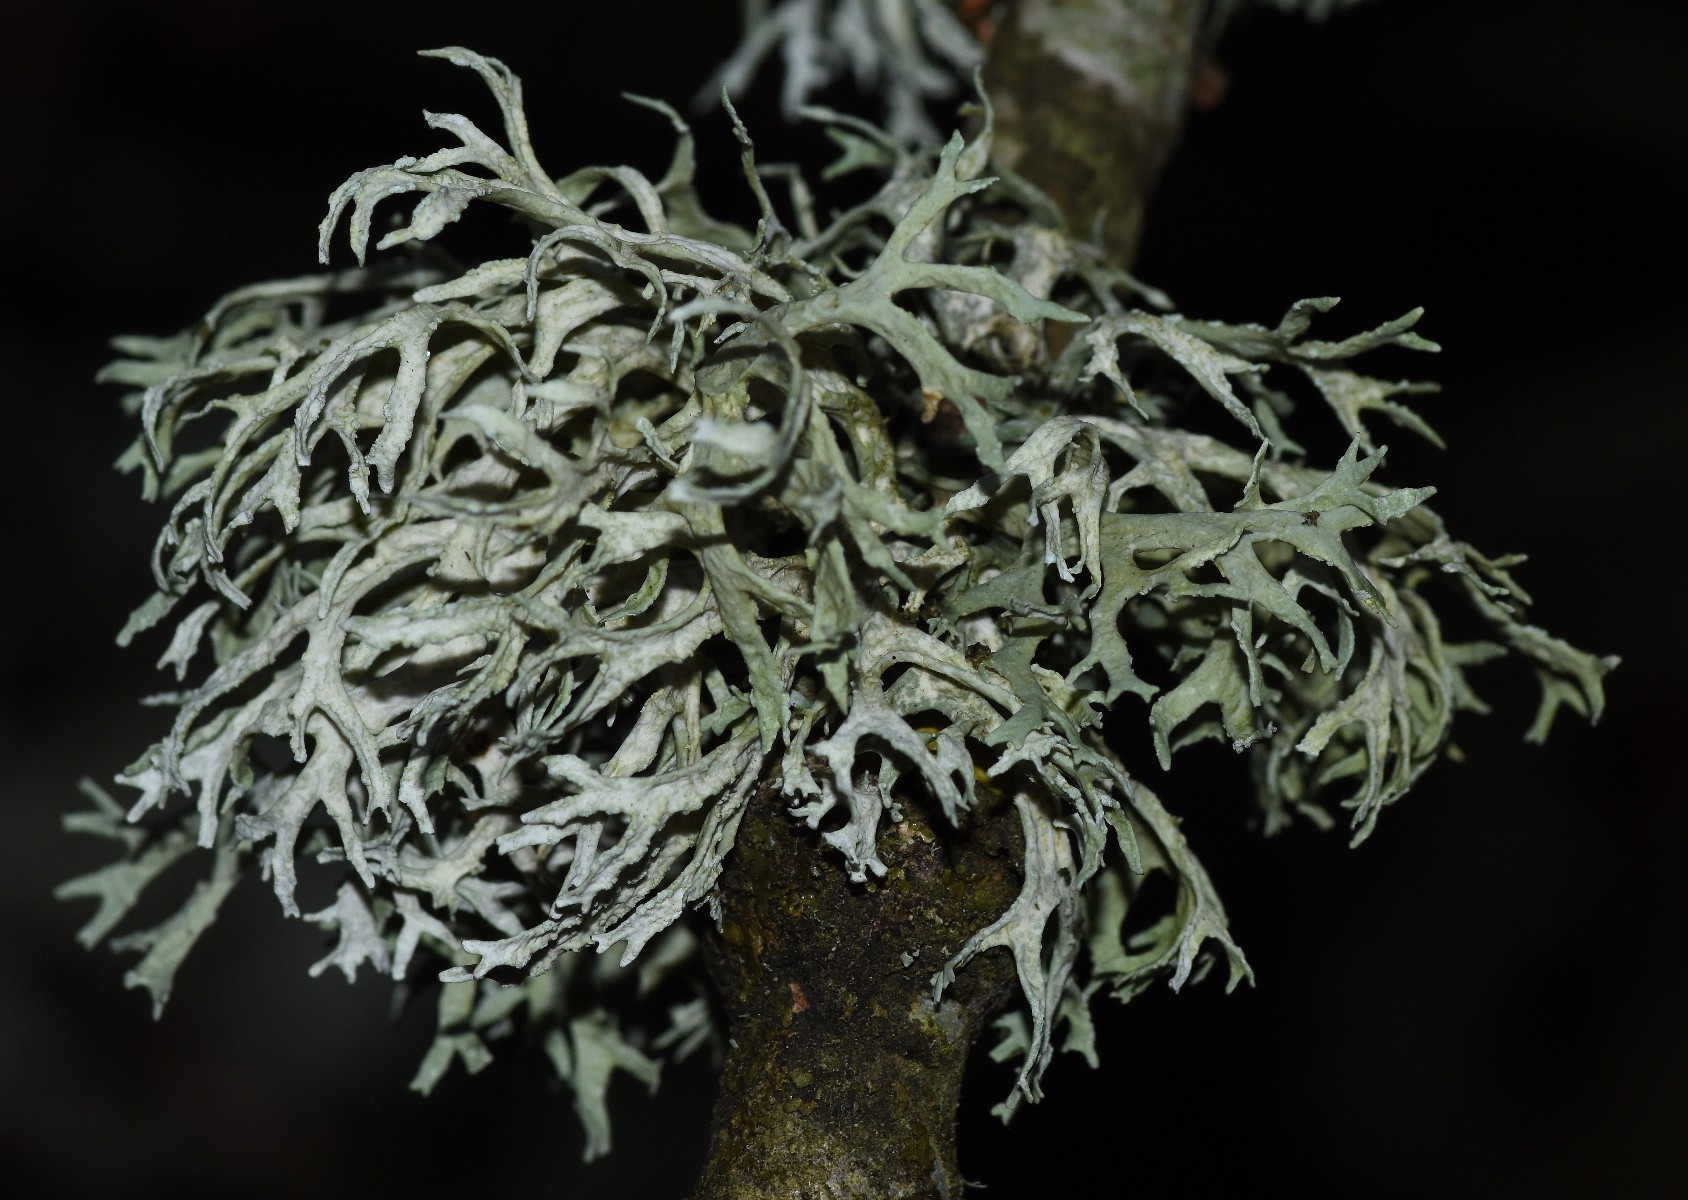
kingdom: Fungi
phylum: Ascomycota
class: Lecanoromycetes
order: Lecanorales
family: Parmeliaceae
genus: Evernia
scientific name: Evernia prunastri
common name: almindelig slåenlav
